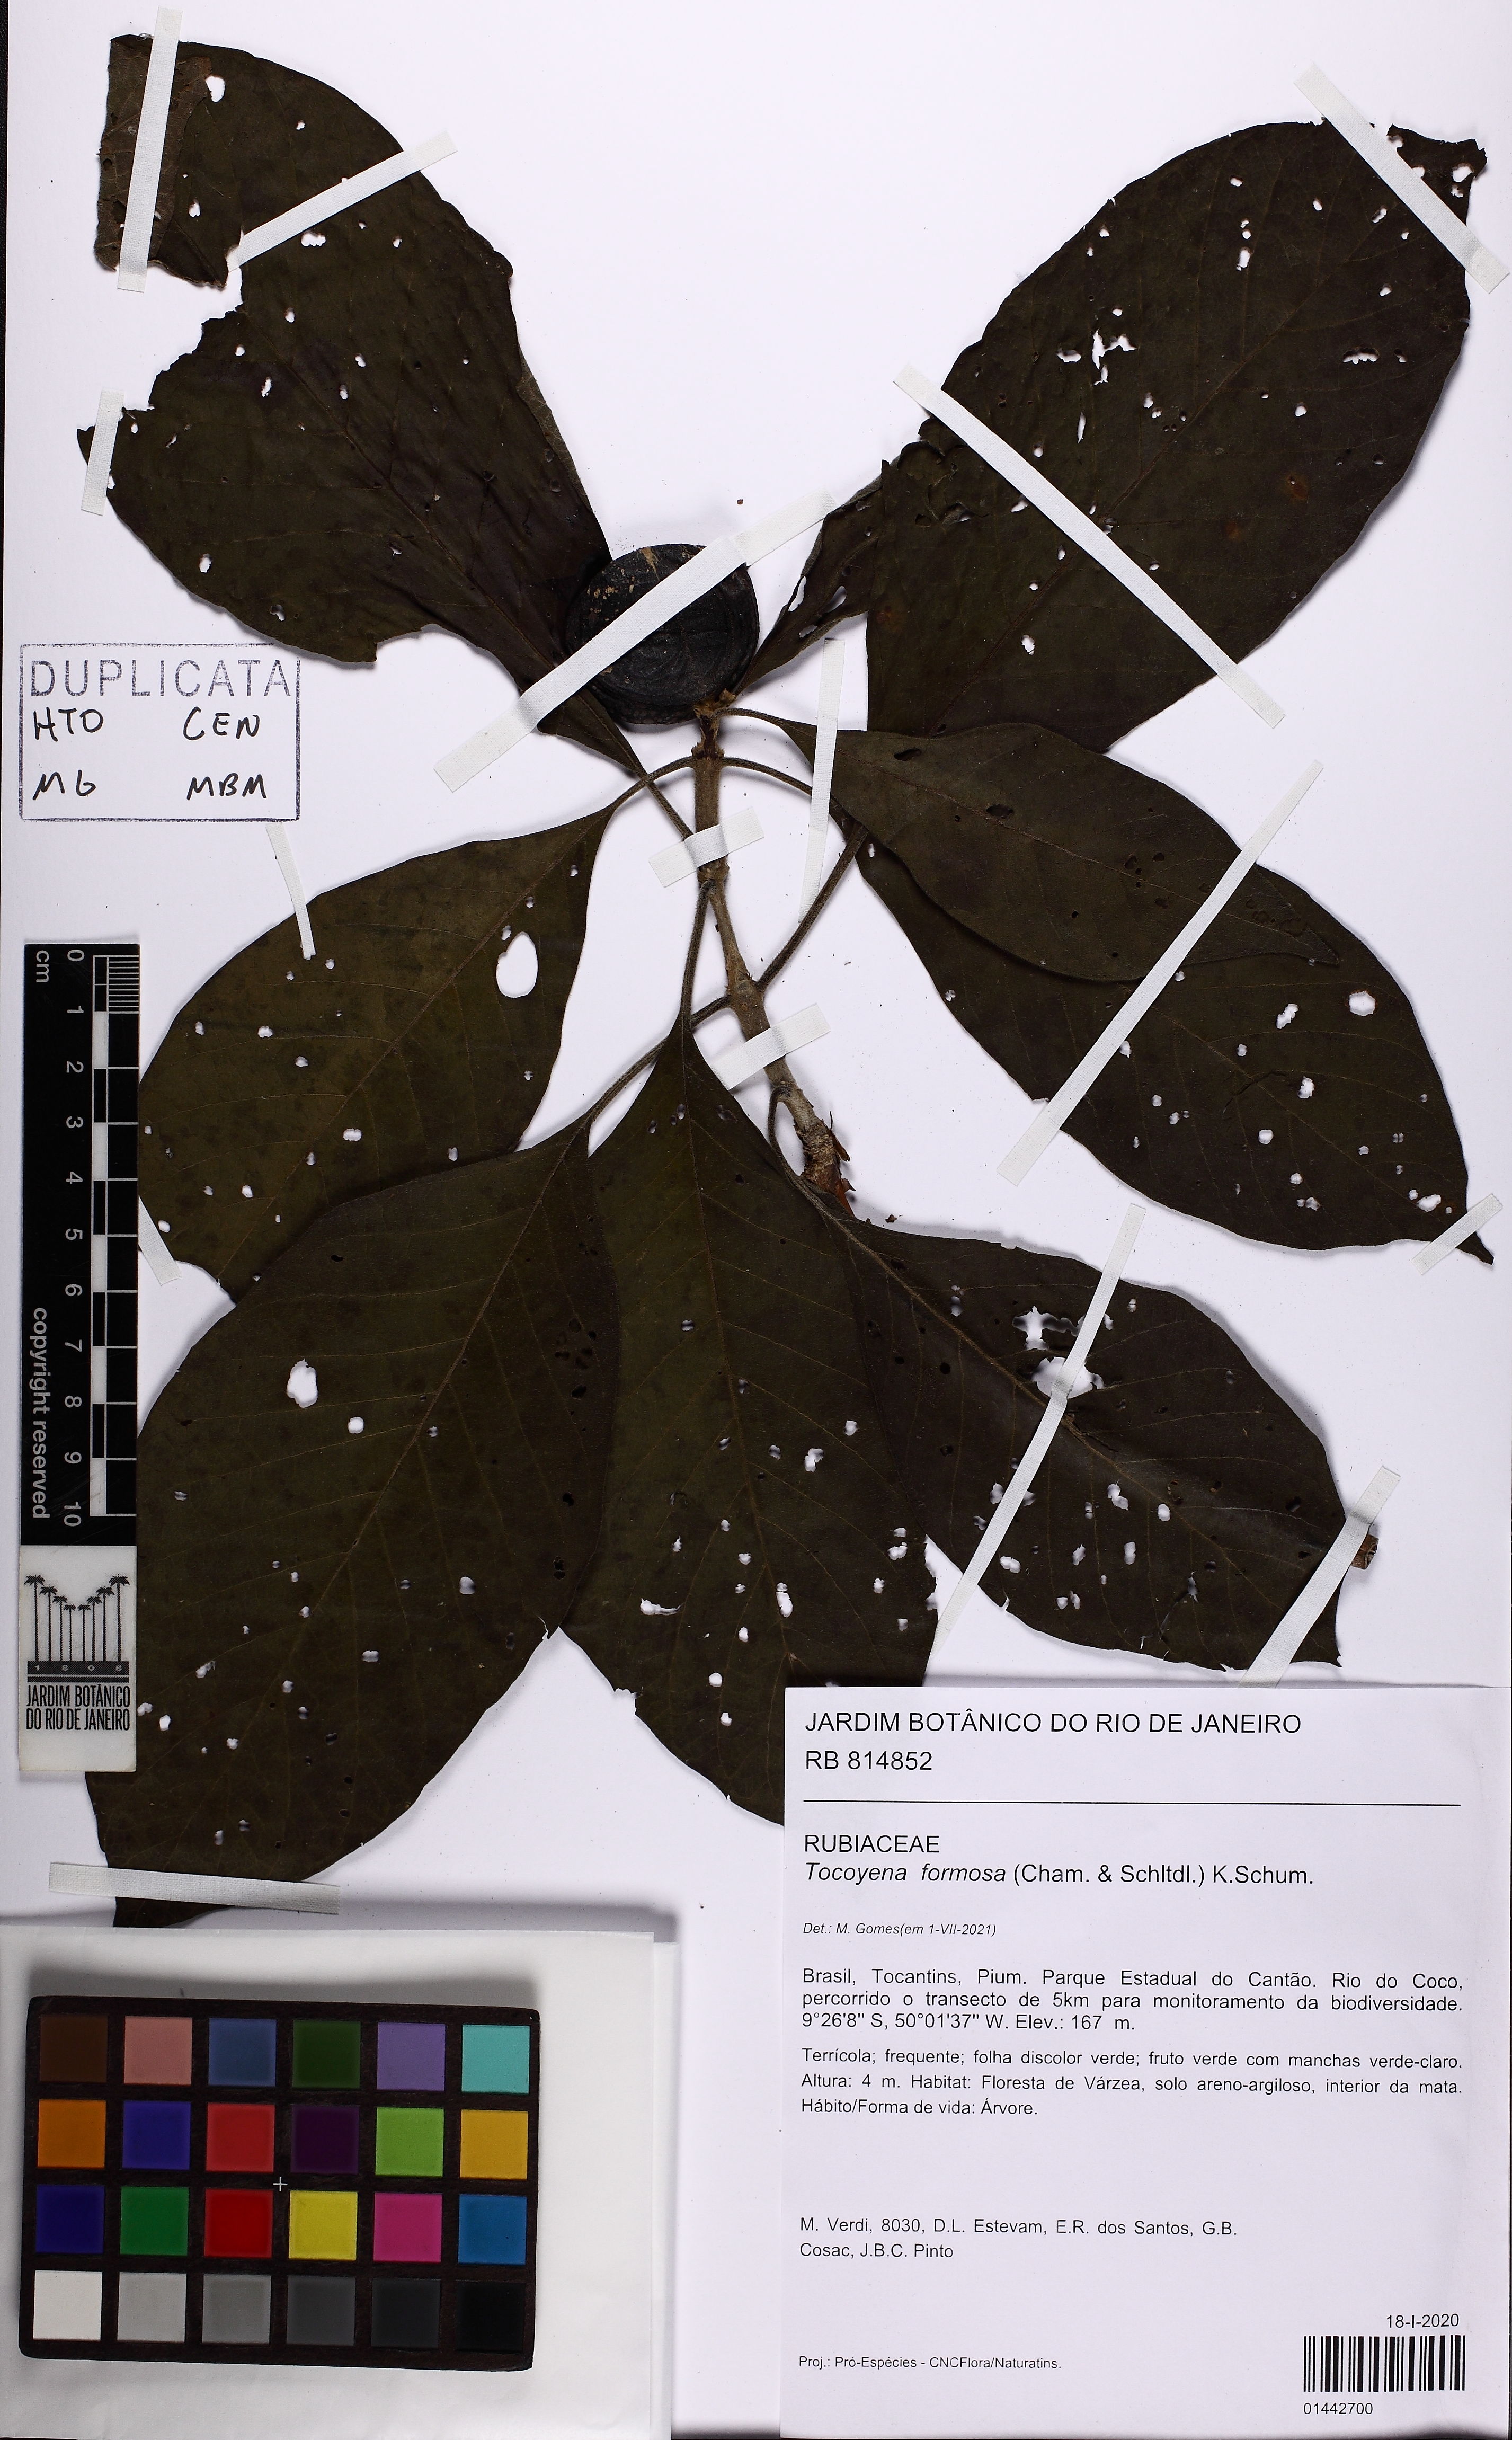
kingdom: Plantae
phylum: Tracheophyta
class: Magnoliopsida
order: Gentianales
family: Rubiaceae
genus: Tocoyena
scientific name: Tocoyena formosa
